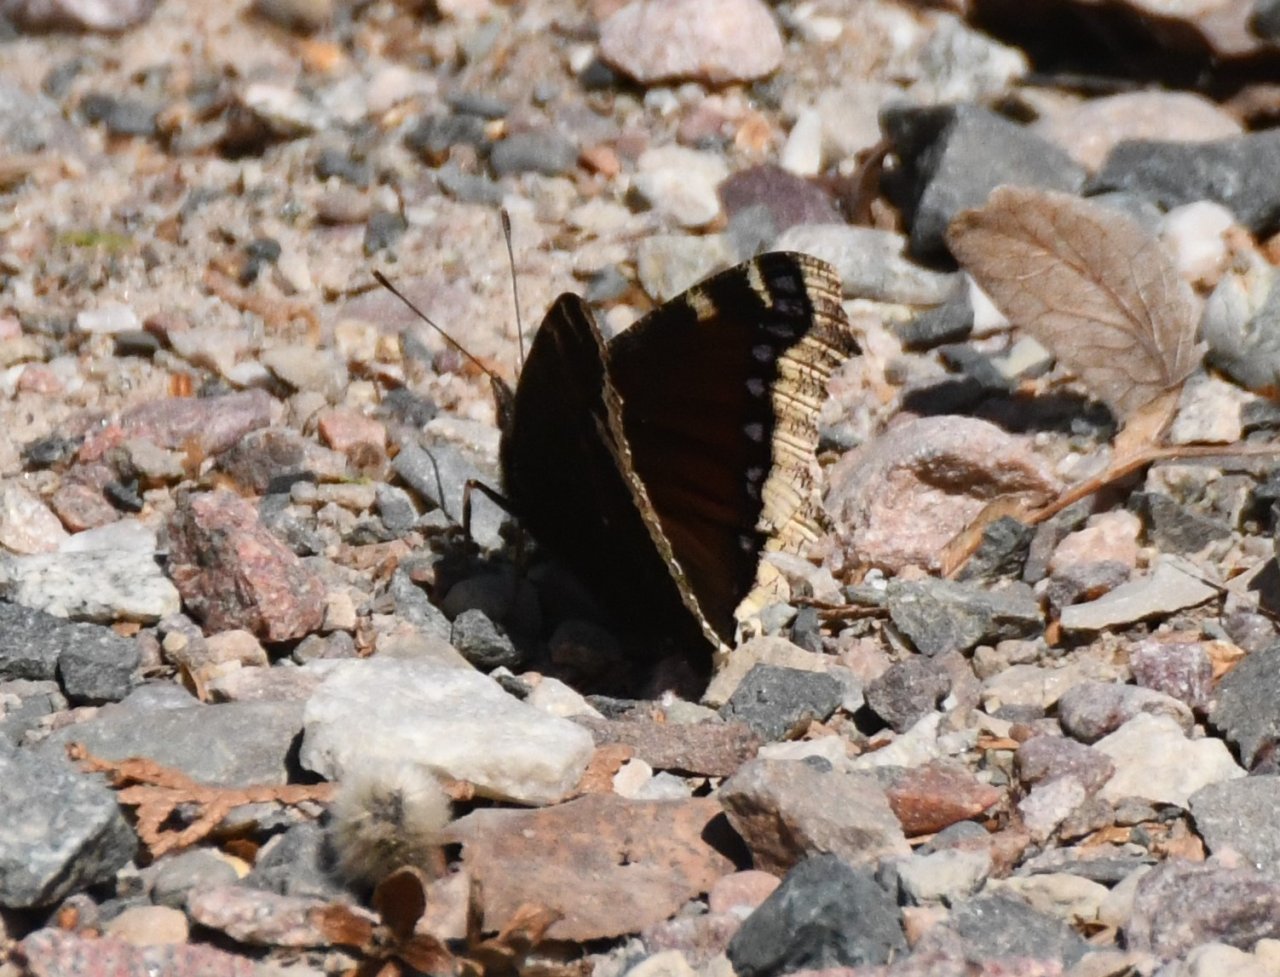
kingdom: Animalia
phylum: Arthropoda
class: Insecta
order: Lepidoptera
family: Nymphalidae
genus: Nymphalis
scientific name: Nymphalis antiopa
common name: Mourning Cloak
